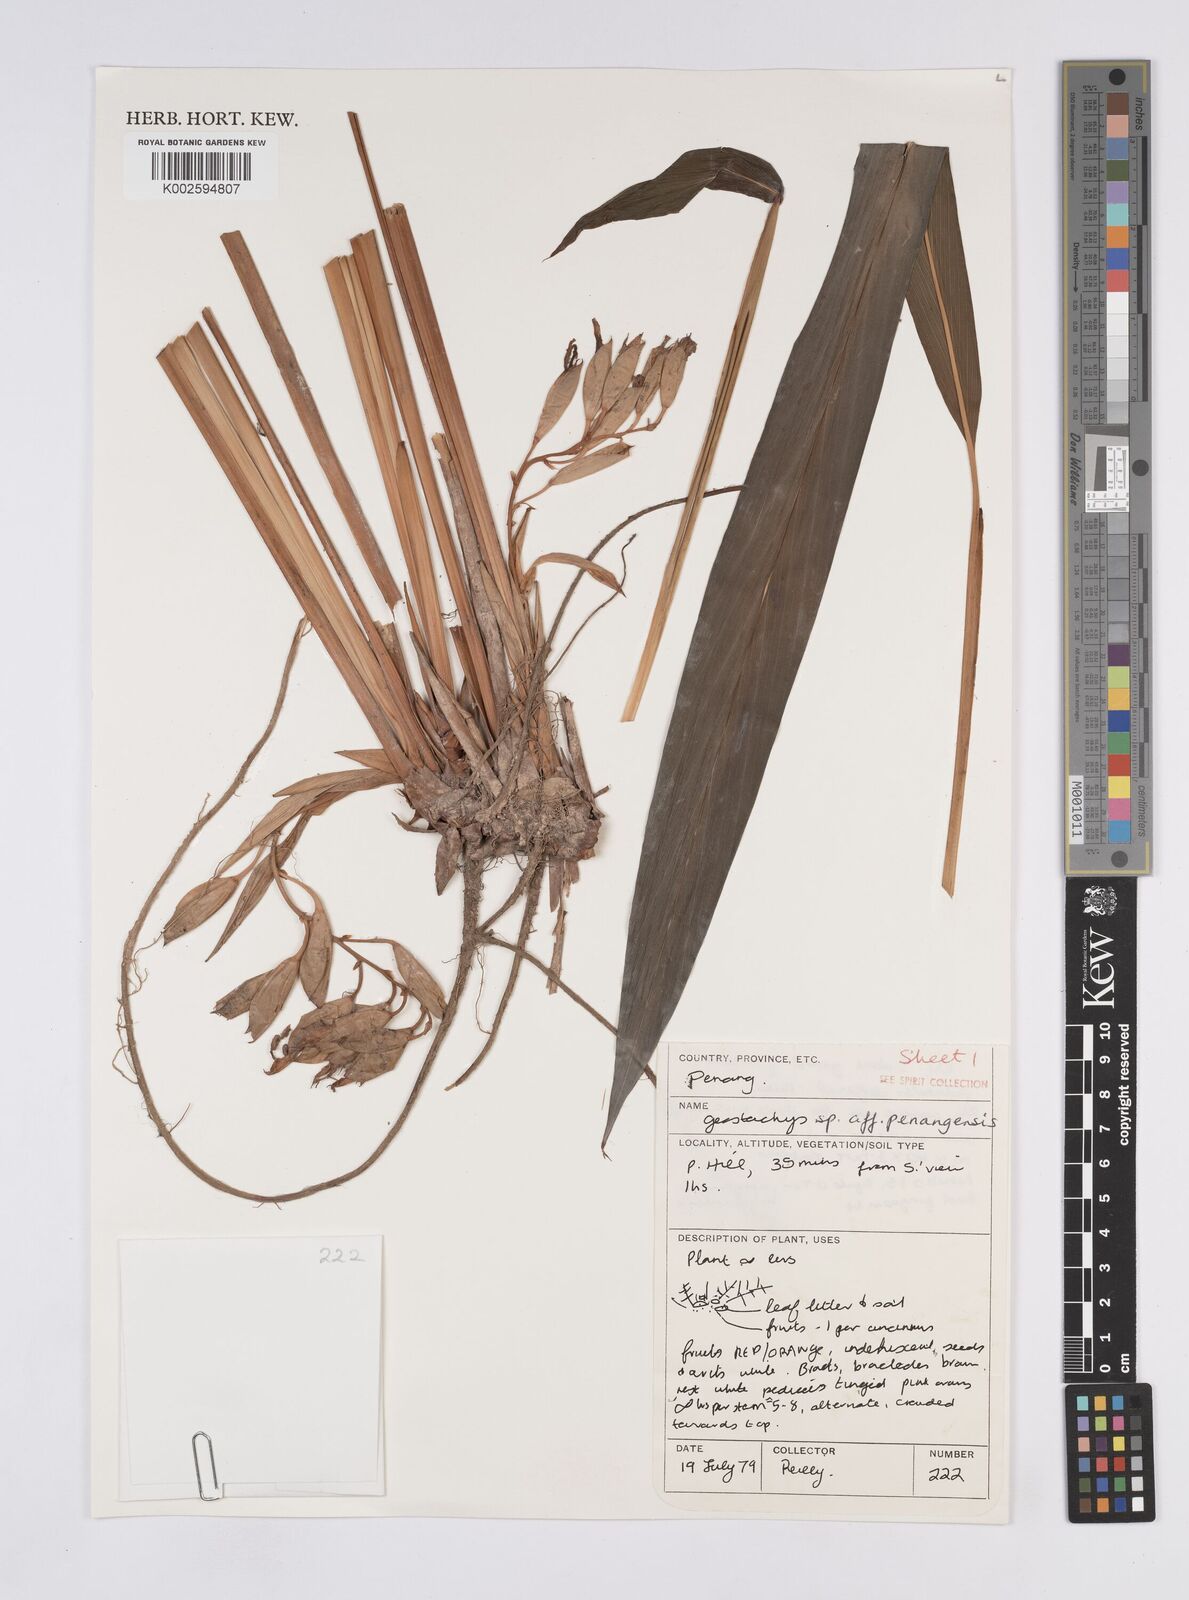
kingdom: Plantae
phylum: Tracheophyta
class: Liliopsida
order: Zingiberales
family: Zingiberaceae
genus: Geostachys
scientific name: Geostachys penangensis
